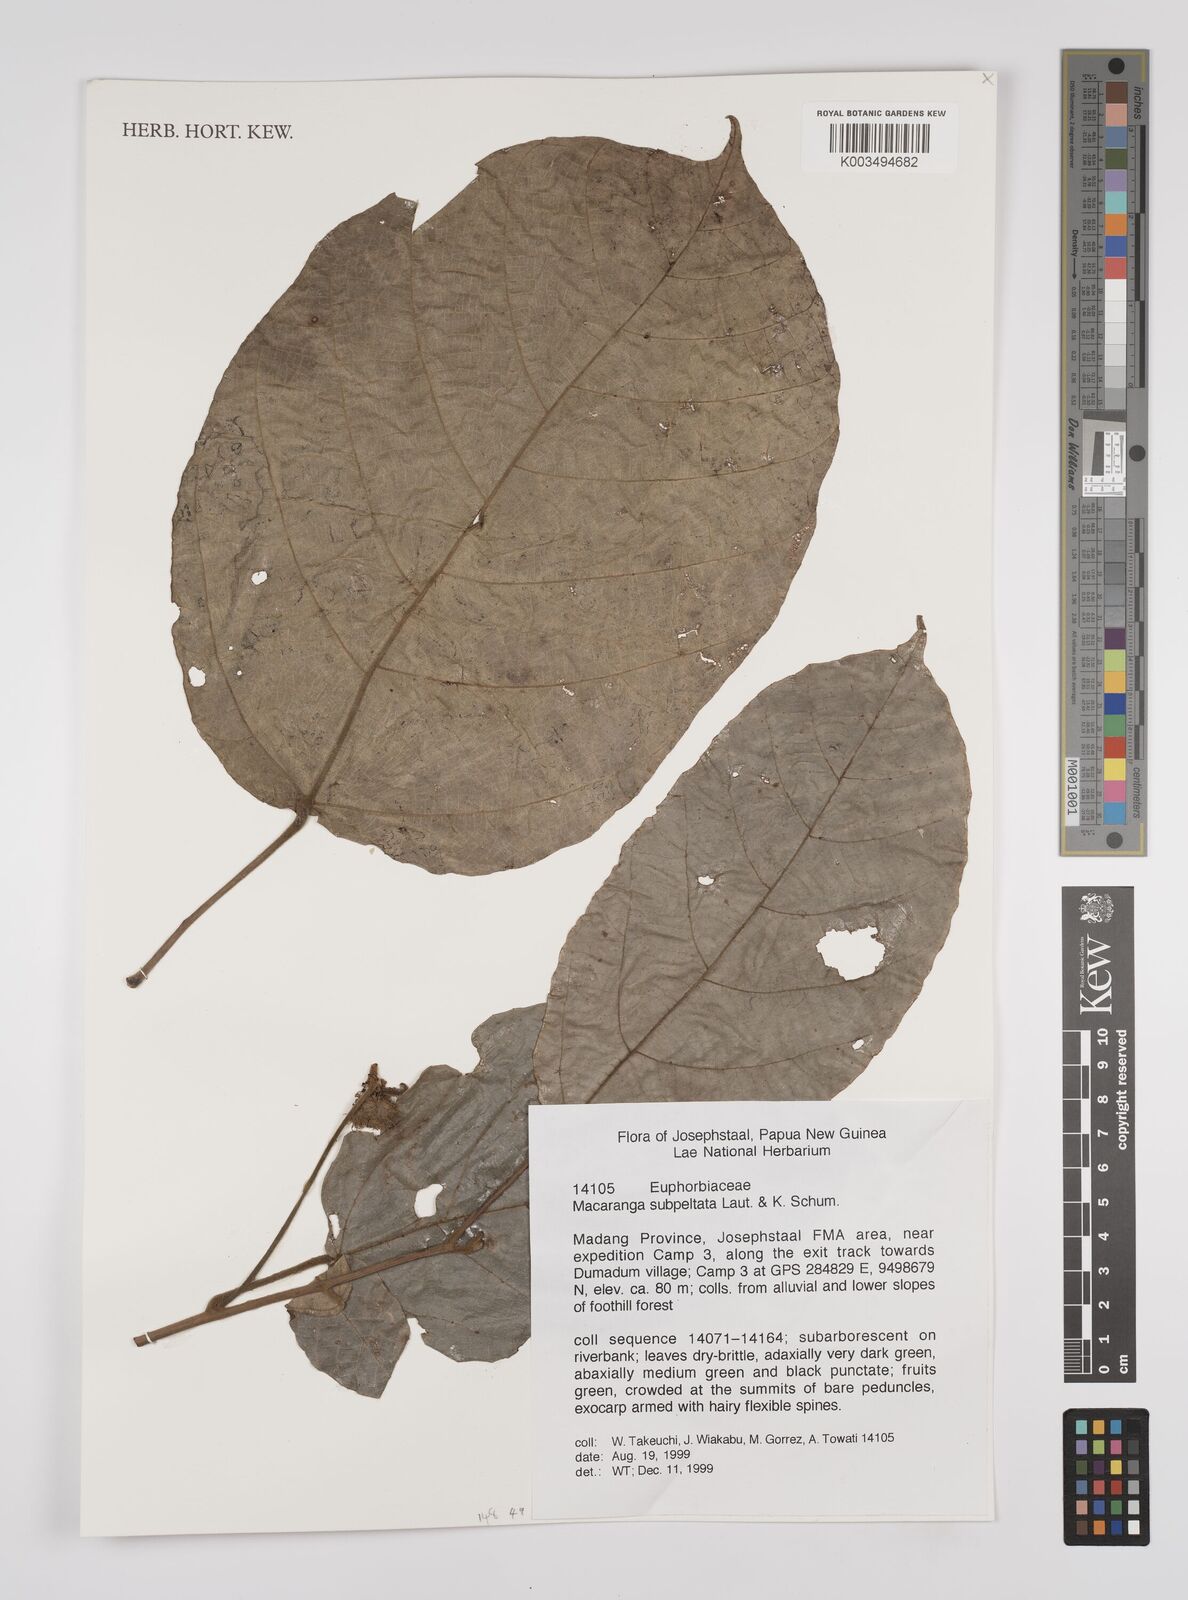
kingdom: Plantae
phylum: Tracheophyta
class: Magnoliopsida
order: Malpighiales
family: Euphorbiaceae
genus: Macaranga
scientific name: Macaranga subpeltata
